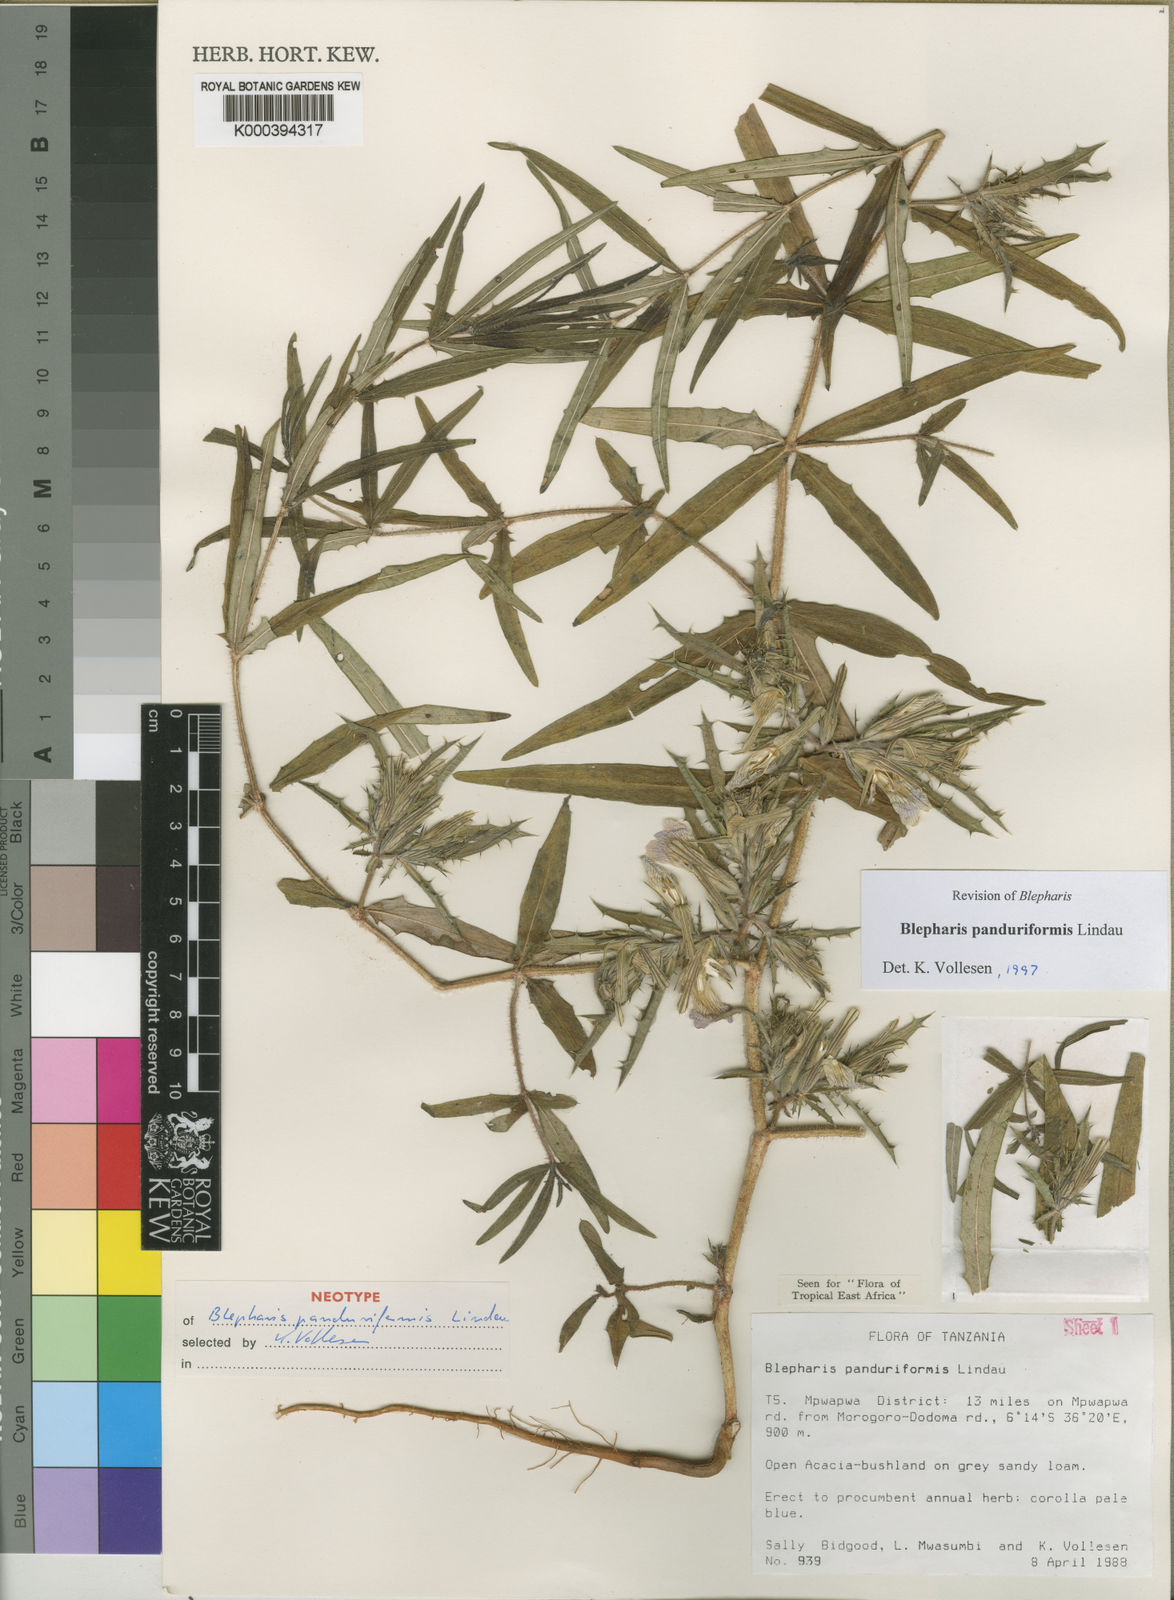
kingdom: Plantae
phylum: Tracheophyta
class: Magnoliopsida
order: Lamiales
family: Acanthaceae
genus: Blepharis
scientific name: Blepharis panduriformis
